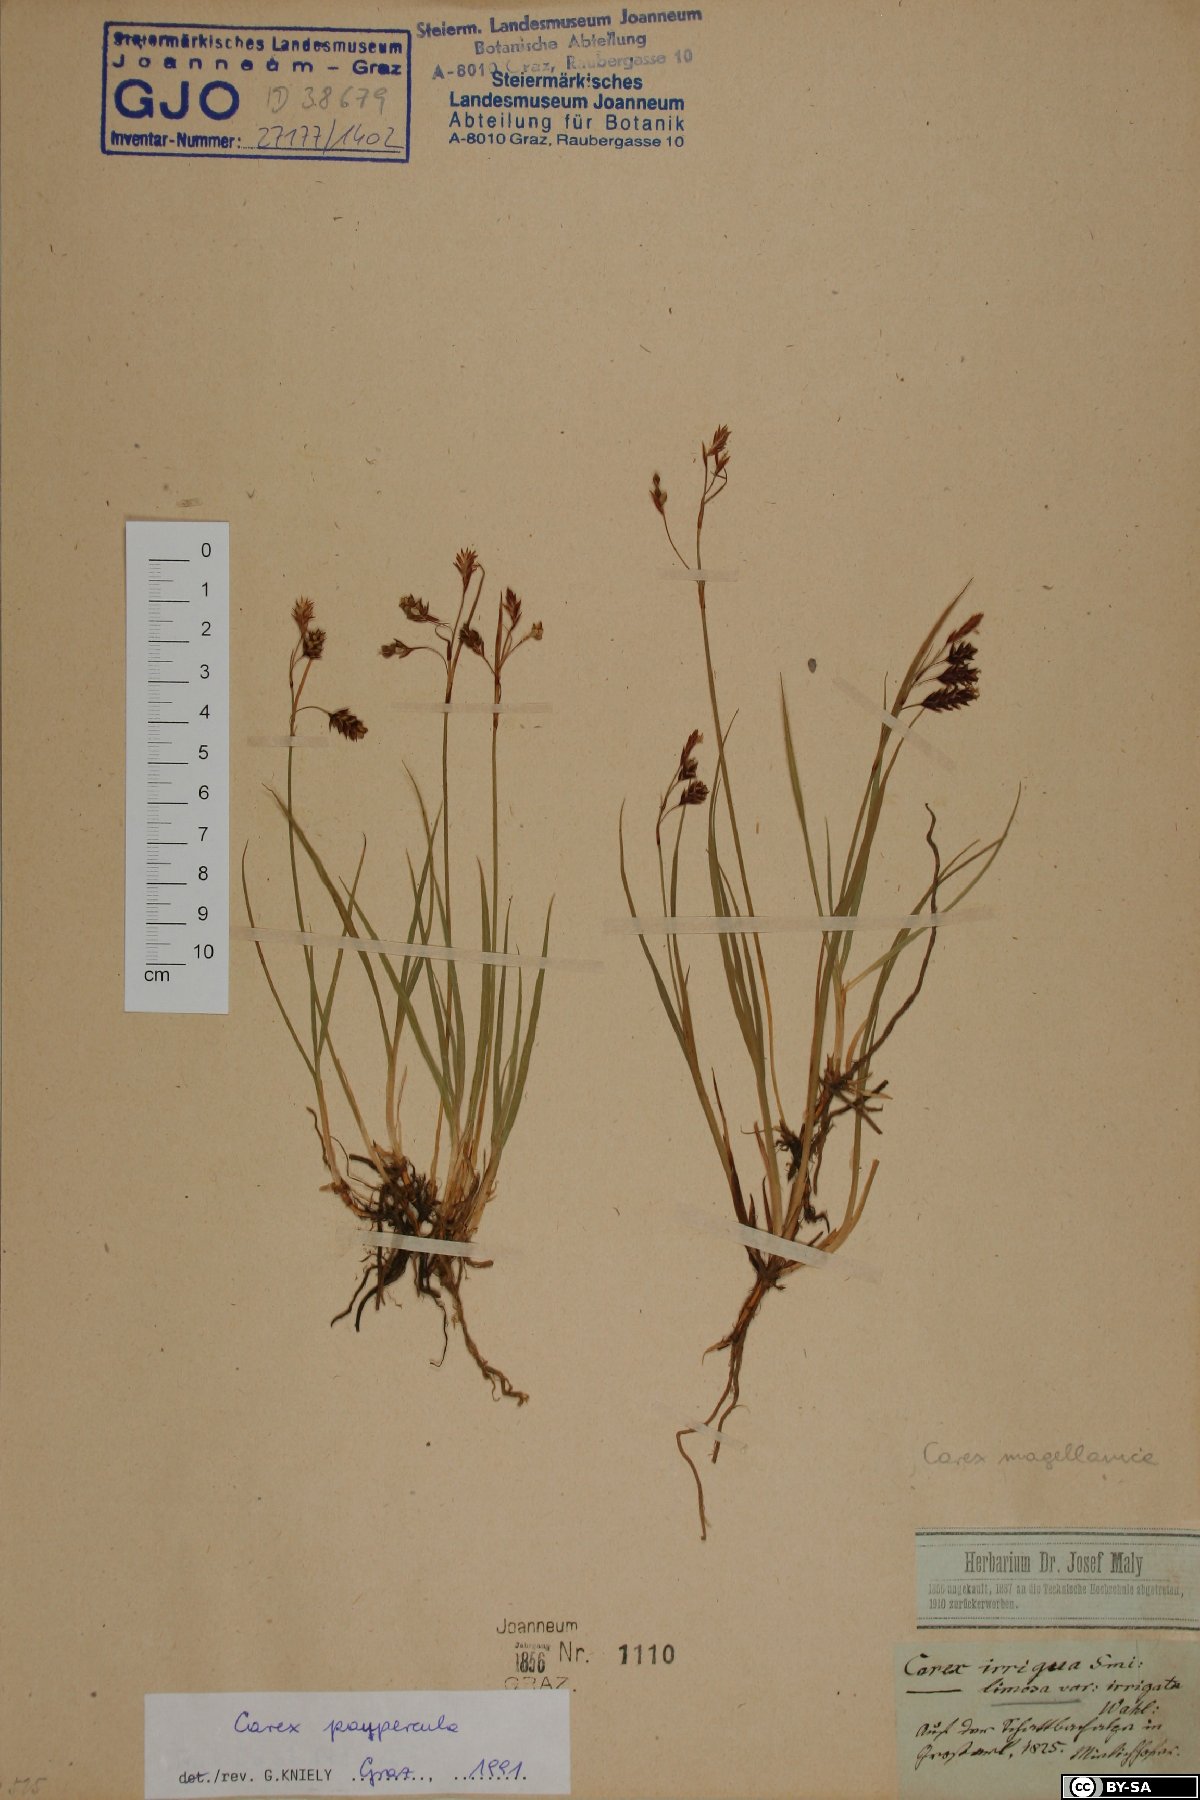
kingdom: Plantae
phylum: Tracheophyta
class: Liliopsida
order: Poales
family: Cyperaceae
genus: Carex
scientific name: Carex magellanica
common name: Bog sedge
